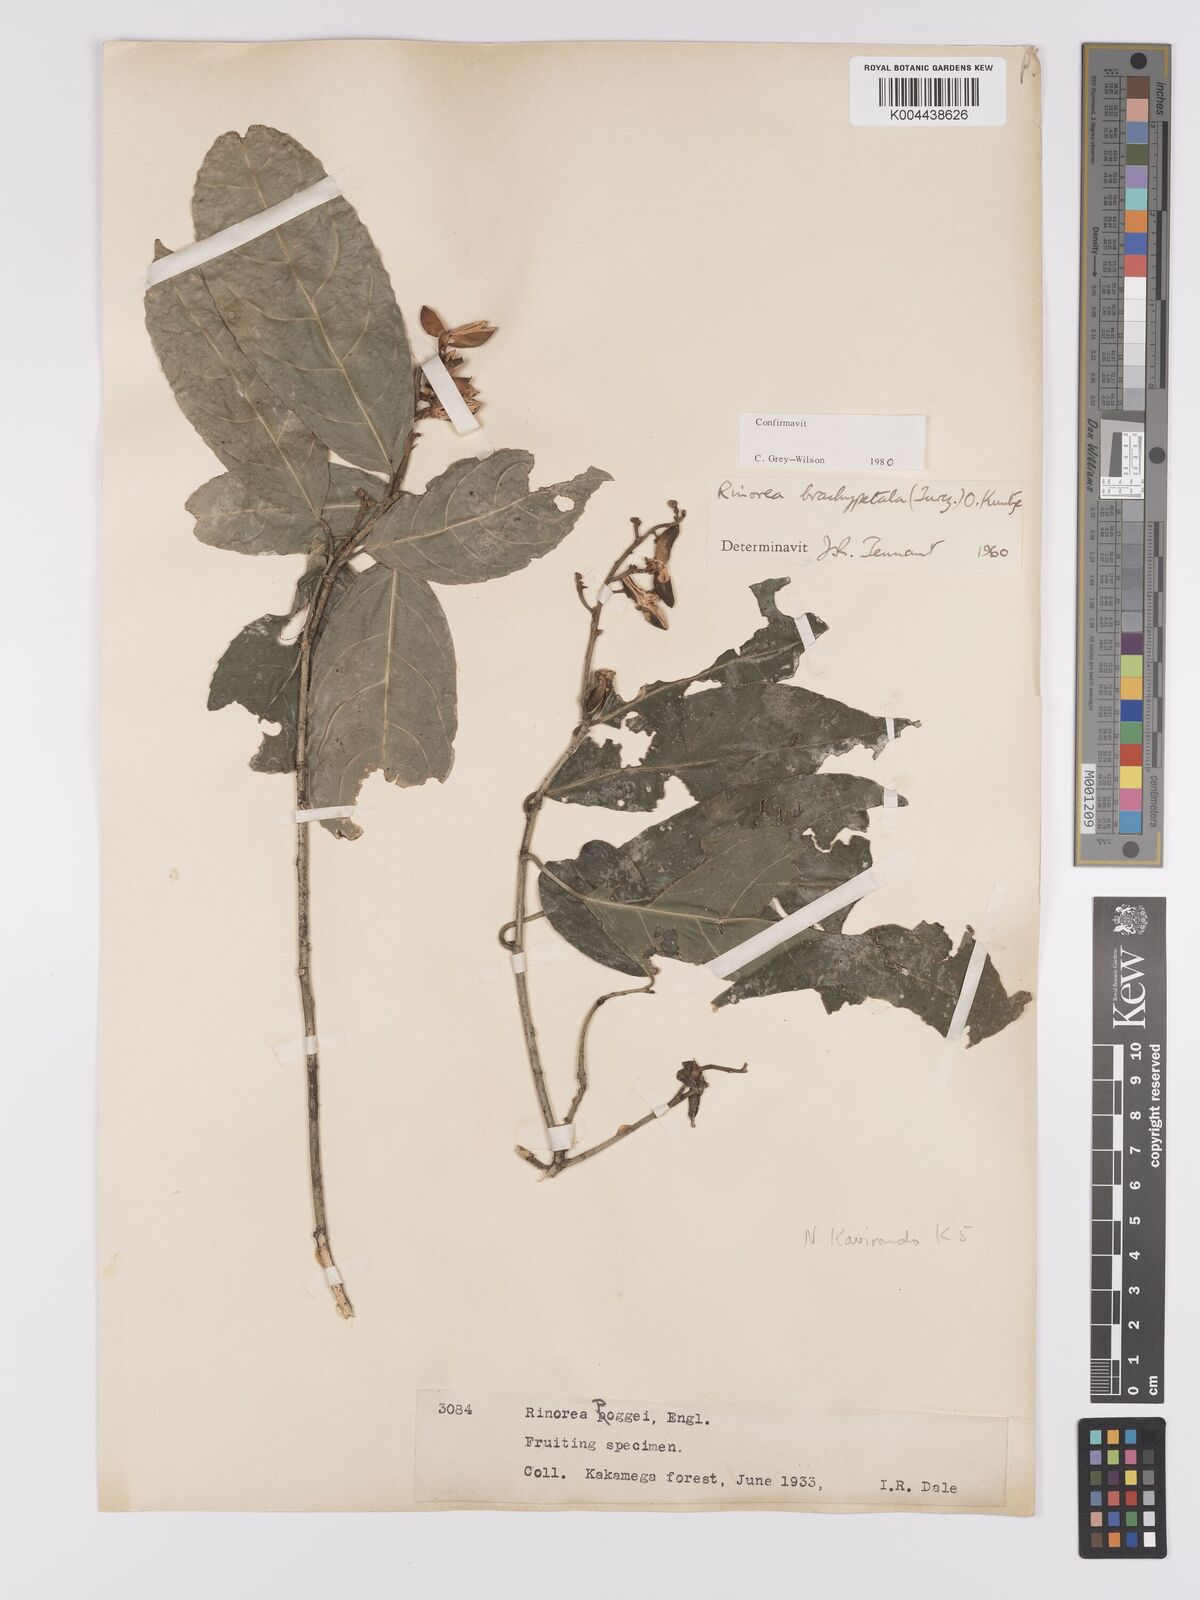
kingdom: Plantae
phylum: Tracheophyta
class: Magnoliopsida
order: Malpighiales
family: Violaceae
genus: Rinorea
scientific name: Rinorea brachypetala
